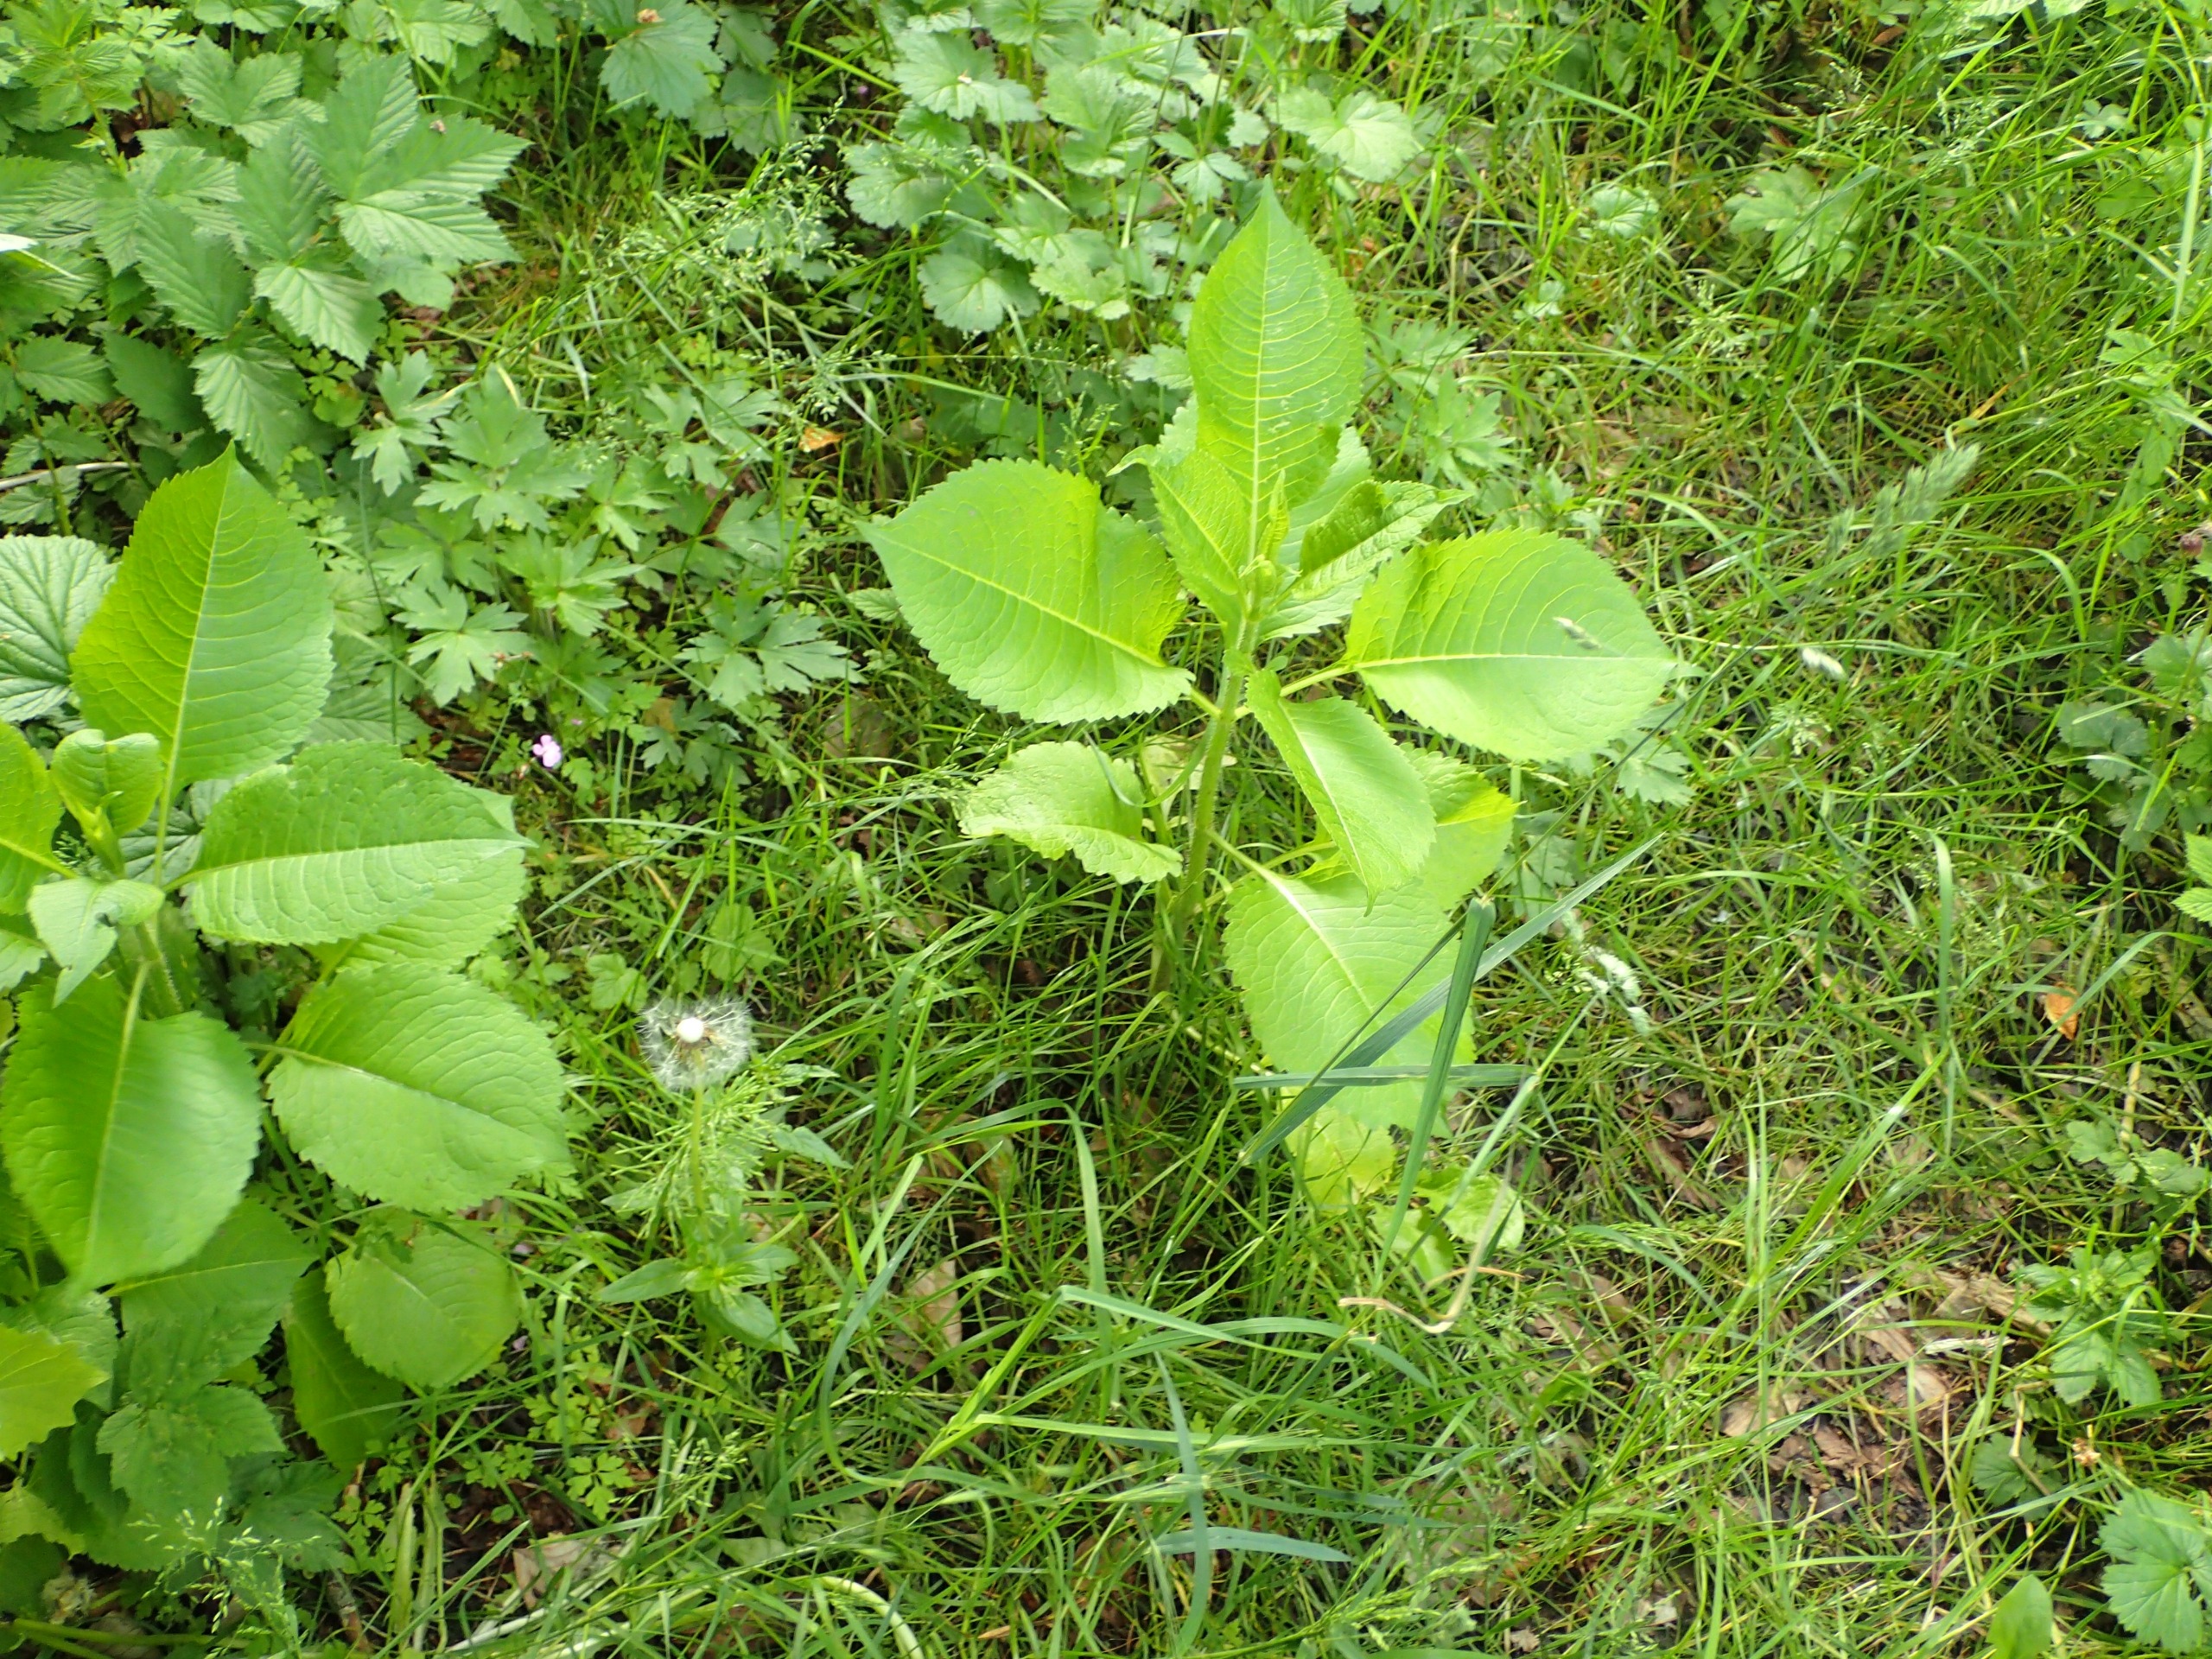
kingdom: Plantae
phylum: Tracheophyta
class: Magnoliopsida
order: Dipsacales
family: Caprifoliaceae
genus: Dipsacus
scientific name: Dipsacus strigosus
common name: Pindsvin-kartebolle
